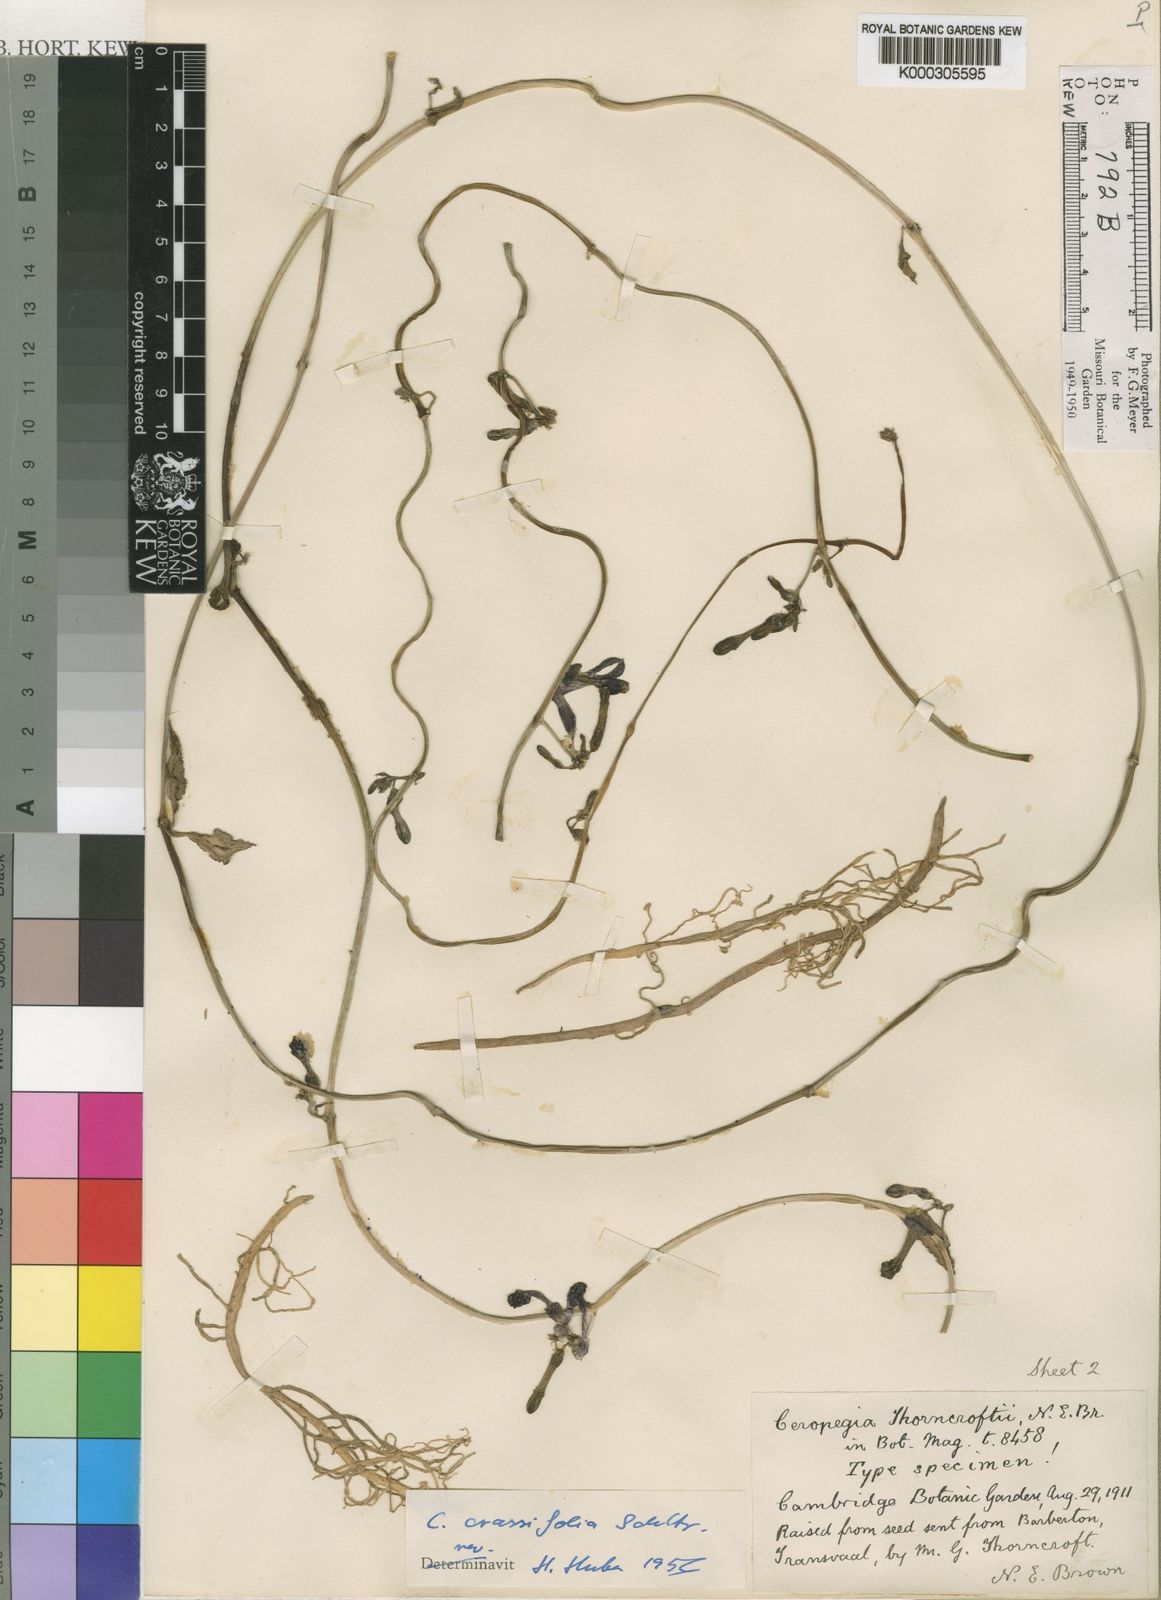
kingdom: Plantae
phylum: Tracheophyta
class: Magnoliopsida
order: Gentianales
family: Apocynaceae
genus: Ceropegia
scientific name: Ceropegia brachyceras
